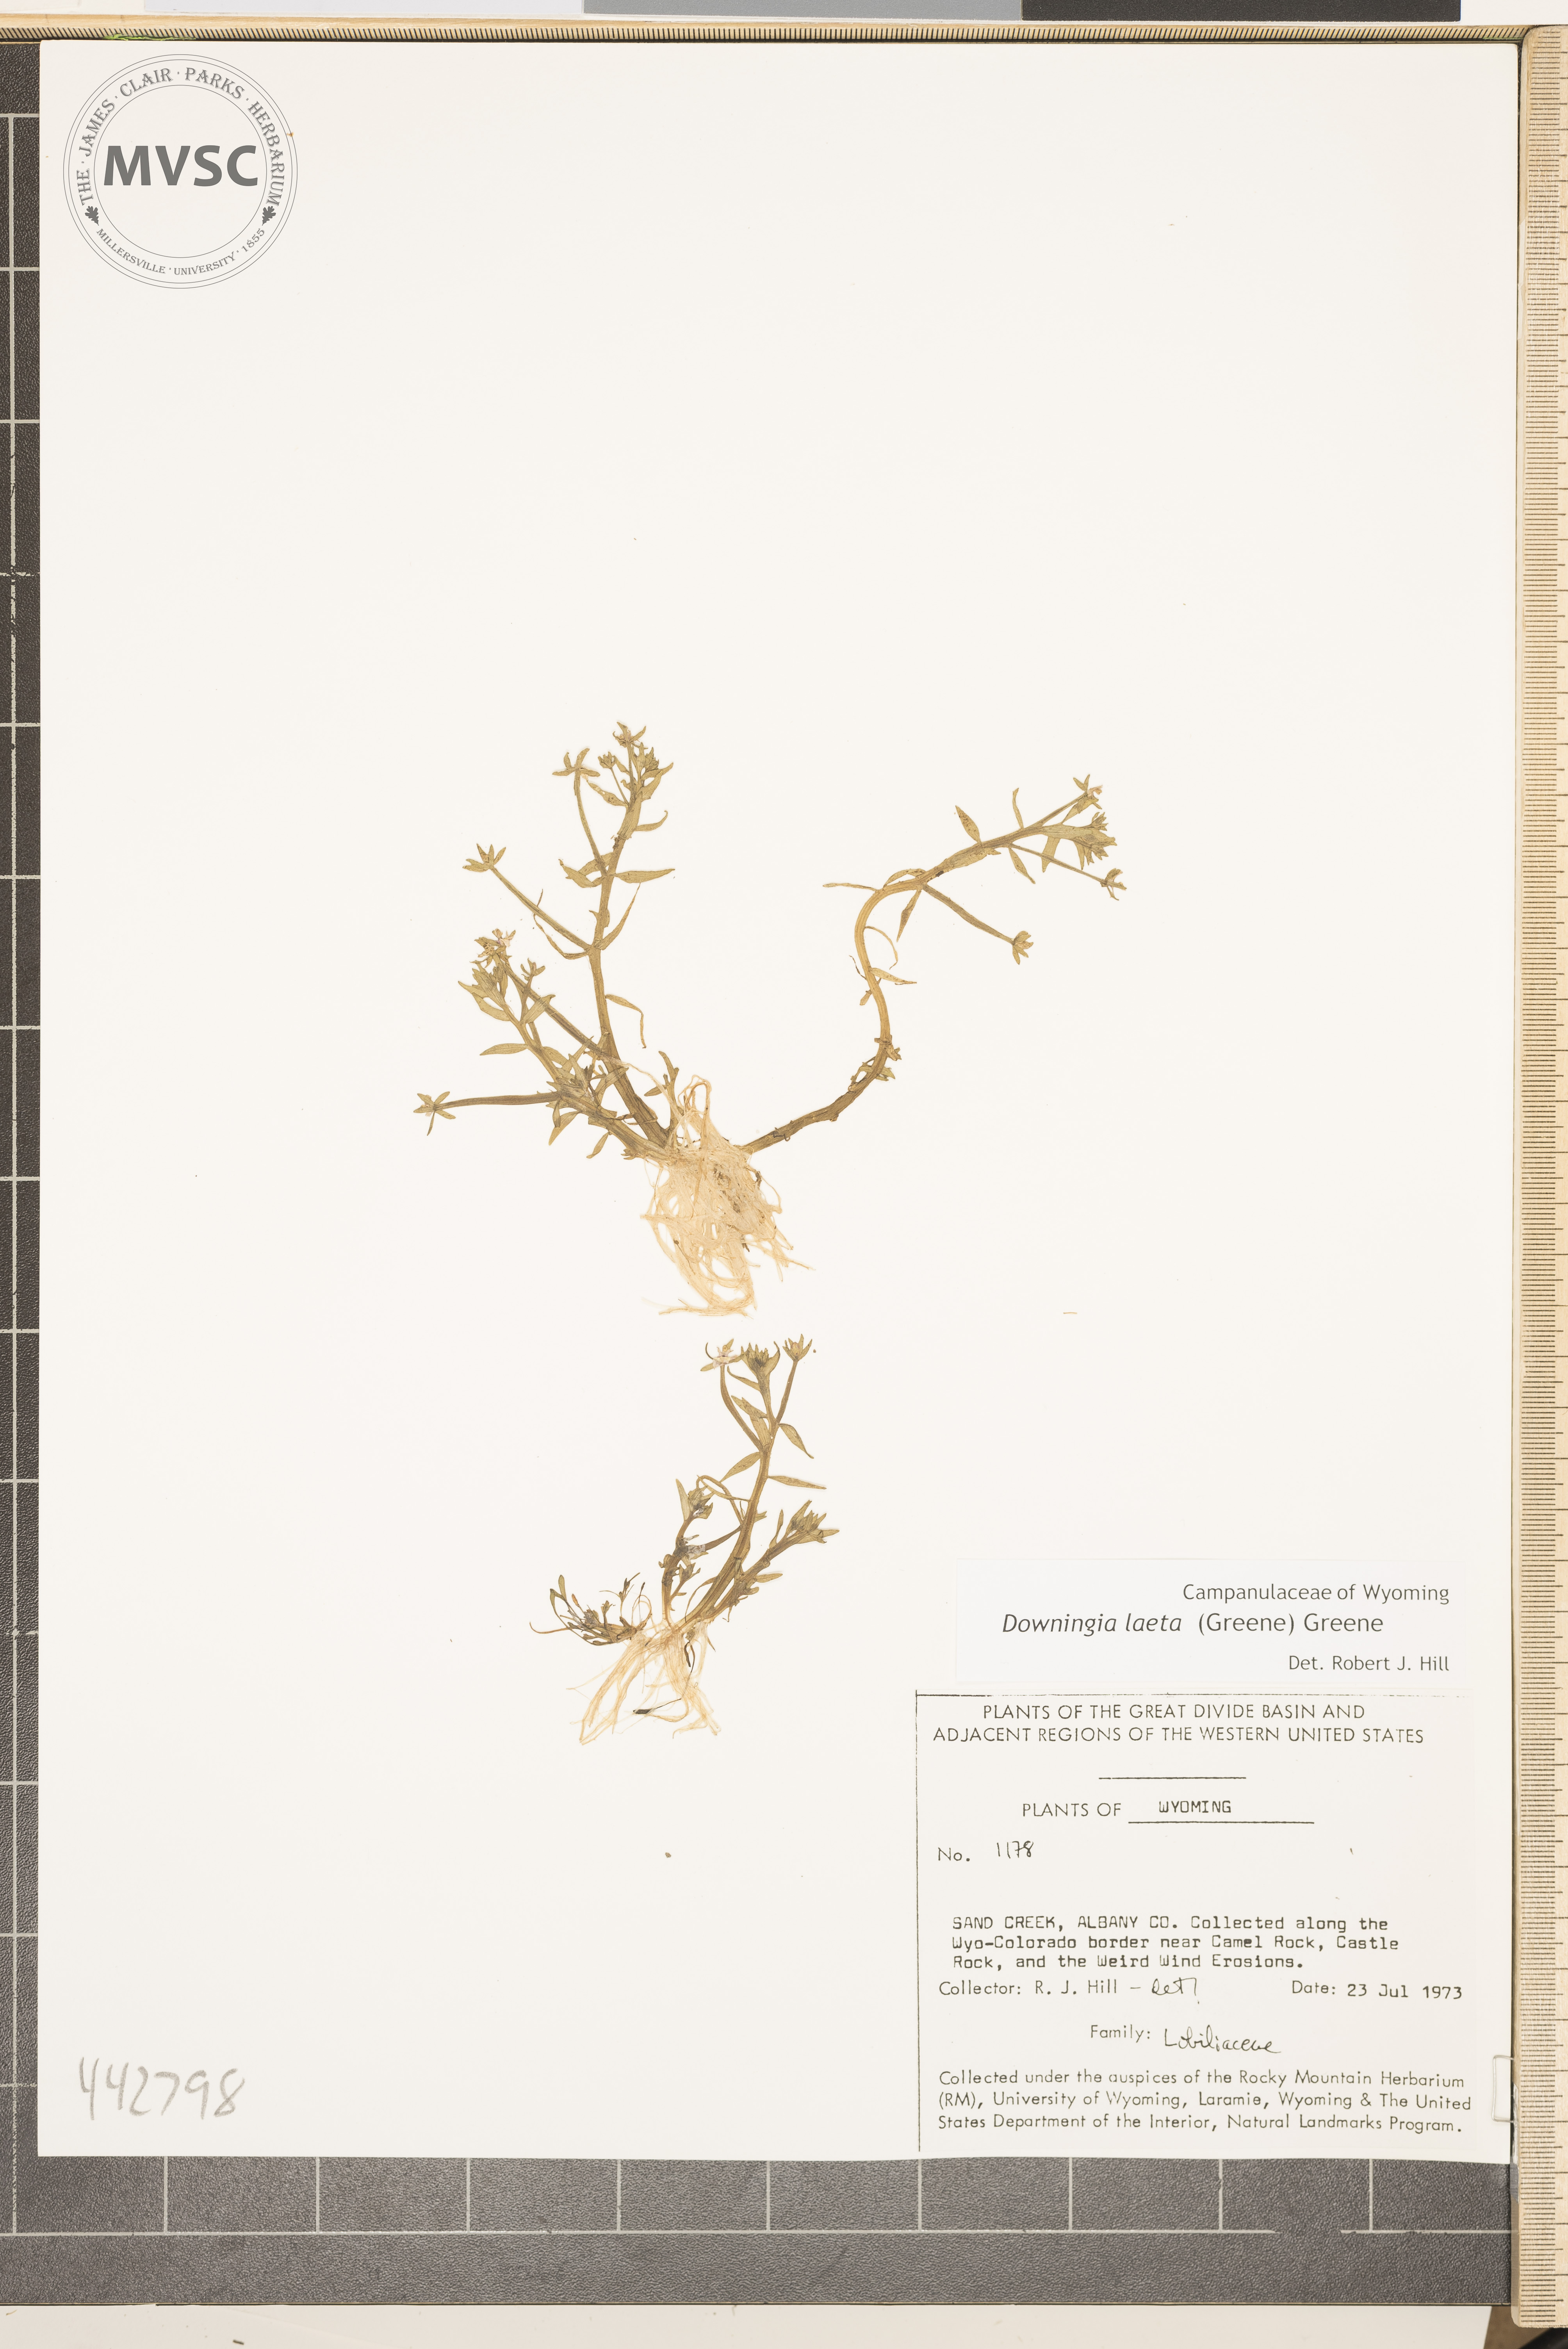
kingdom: Plantae
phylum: Tracheophyta
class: Magnoliopsida
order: Asterales
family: Campanulaceae
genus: Downingia
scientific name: Downingia laeta
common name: Great basin calicoflower
